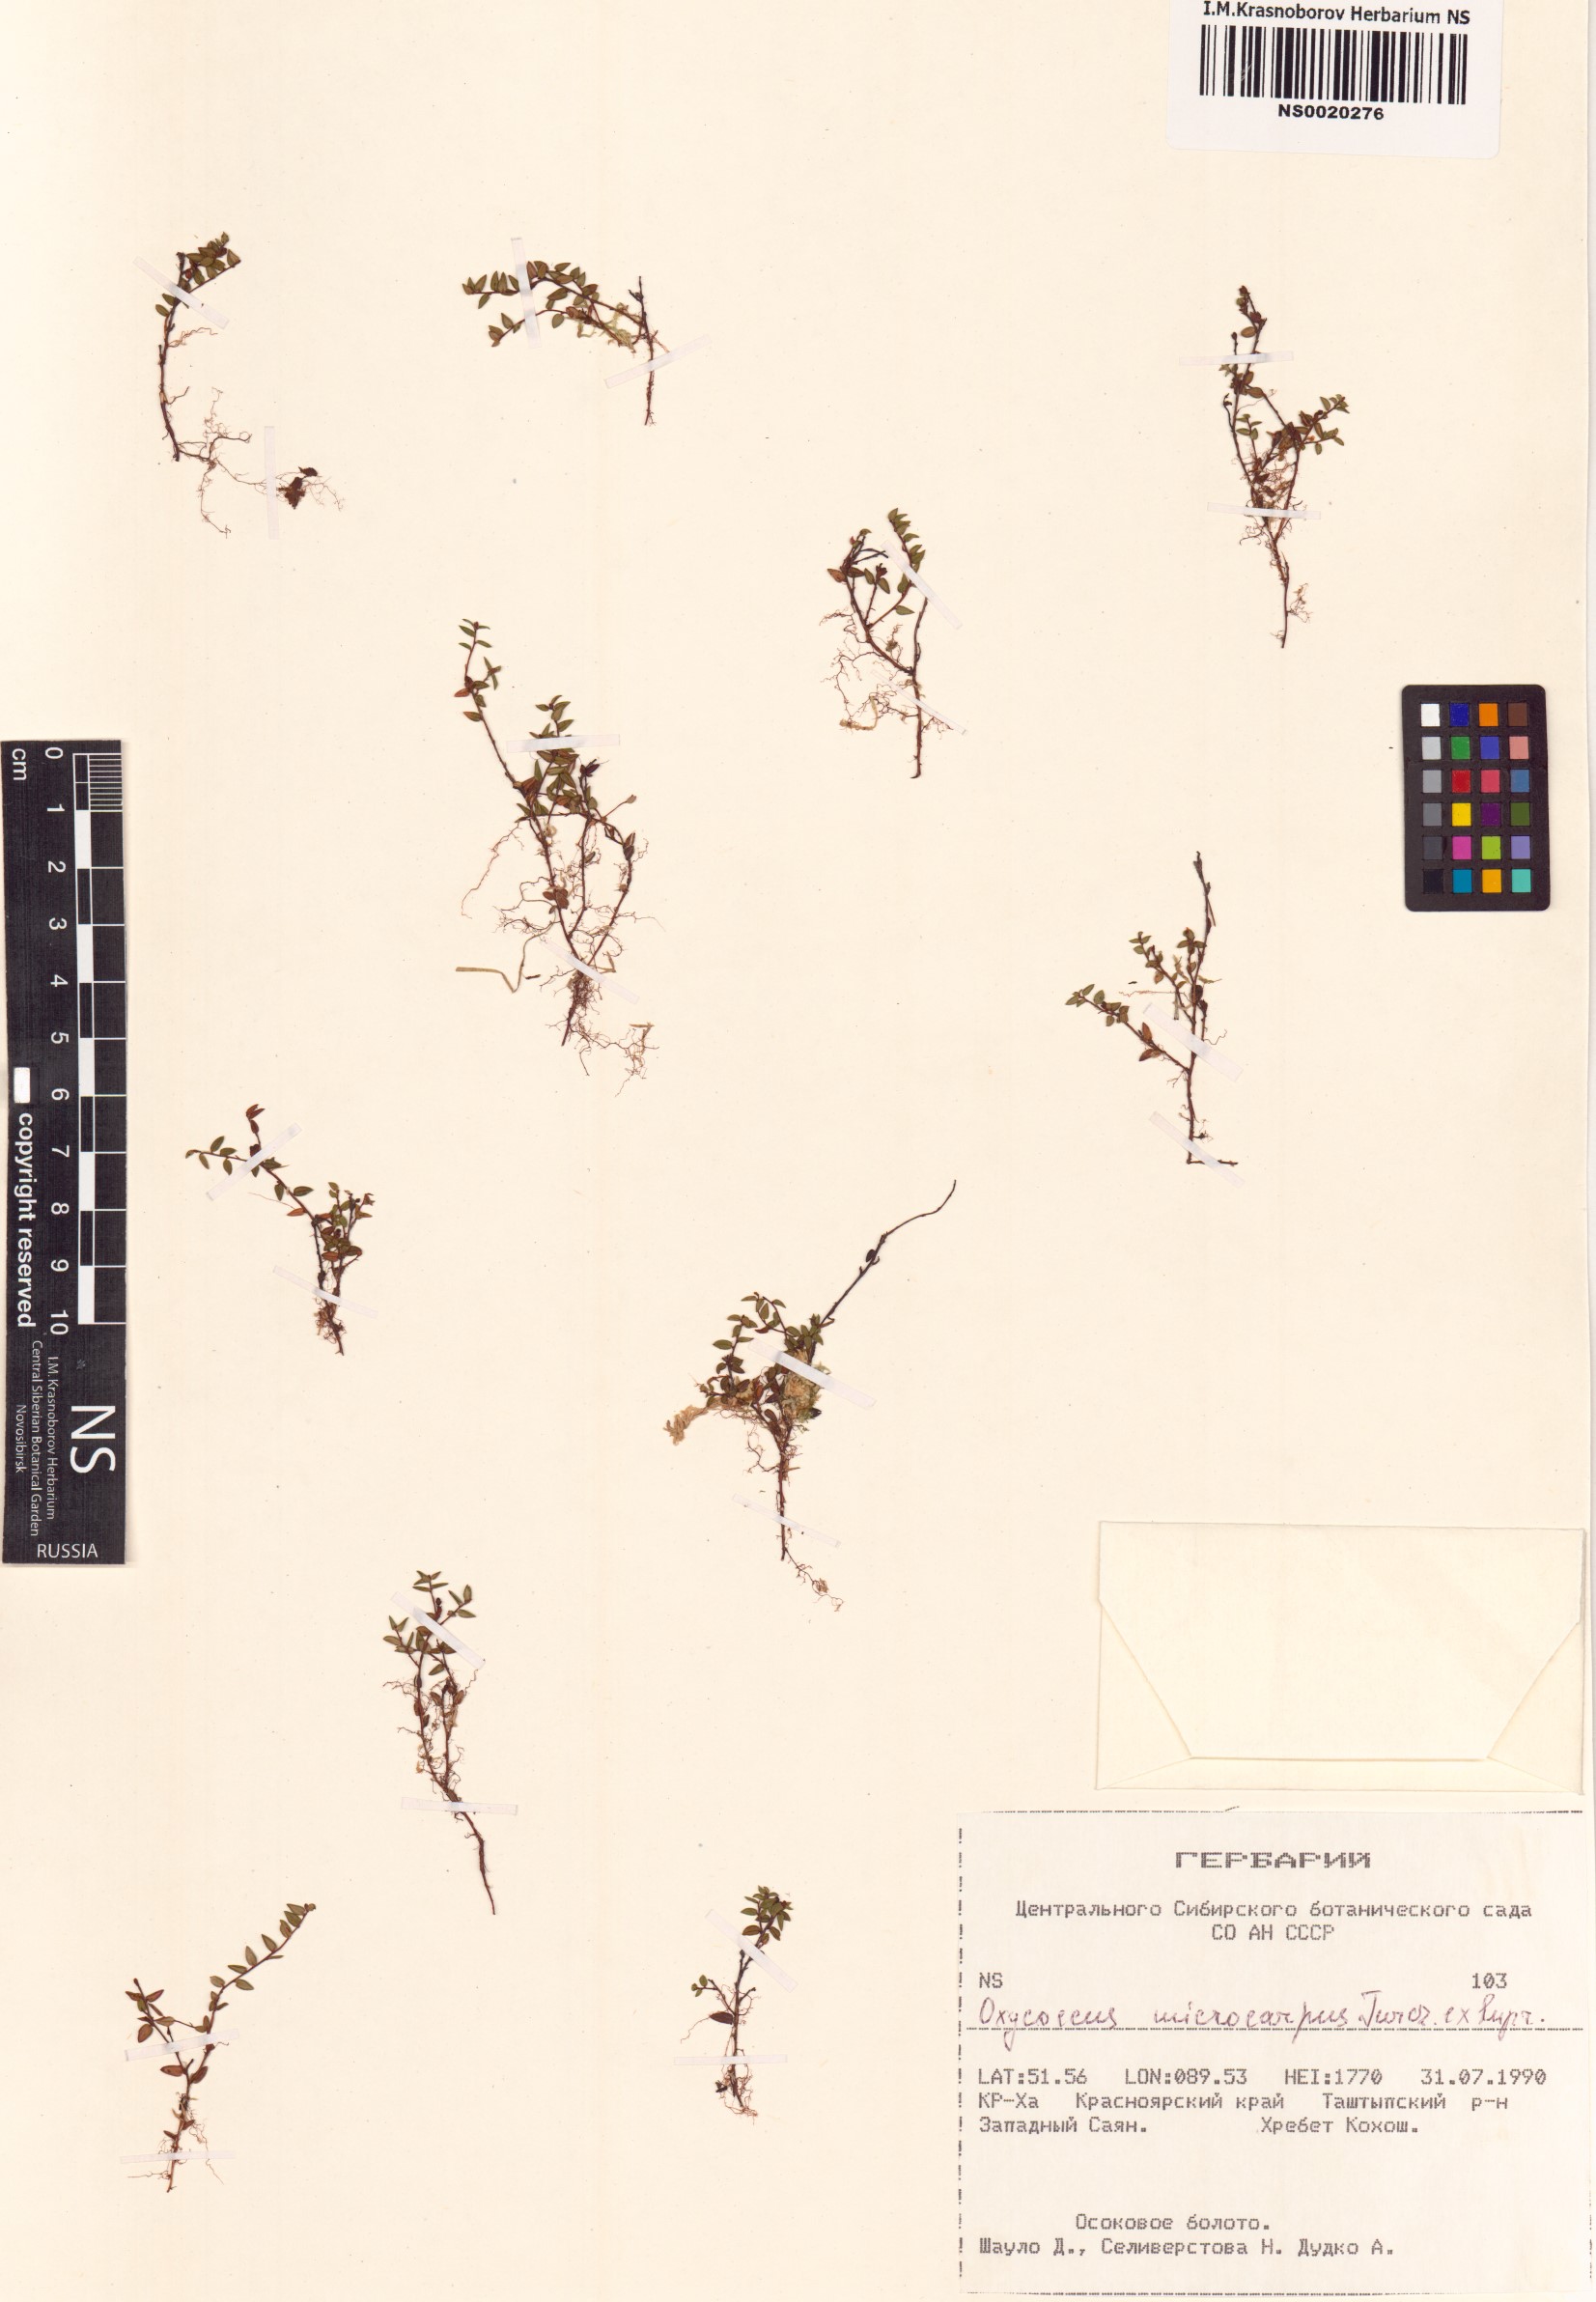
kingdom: Plantae
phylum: Tracheophyta
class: Magnoliopsida
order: Ericales
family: Ericaceae
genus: Vaccinium
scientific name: Vaccinium microcarpum
